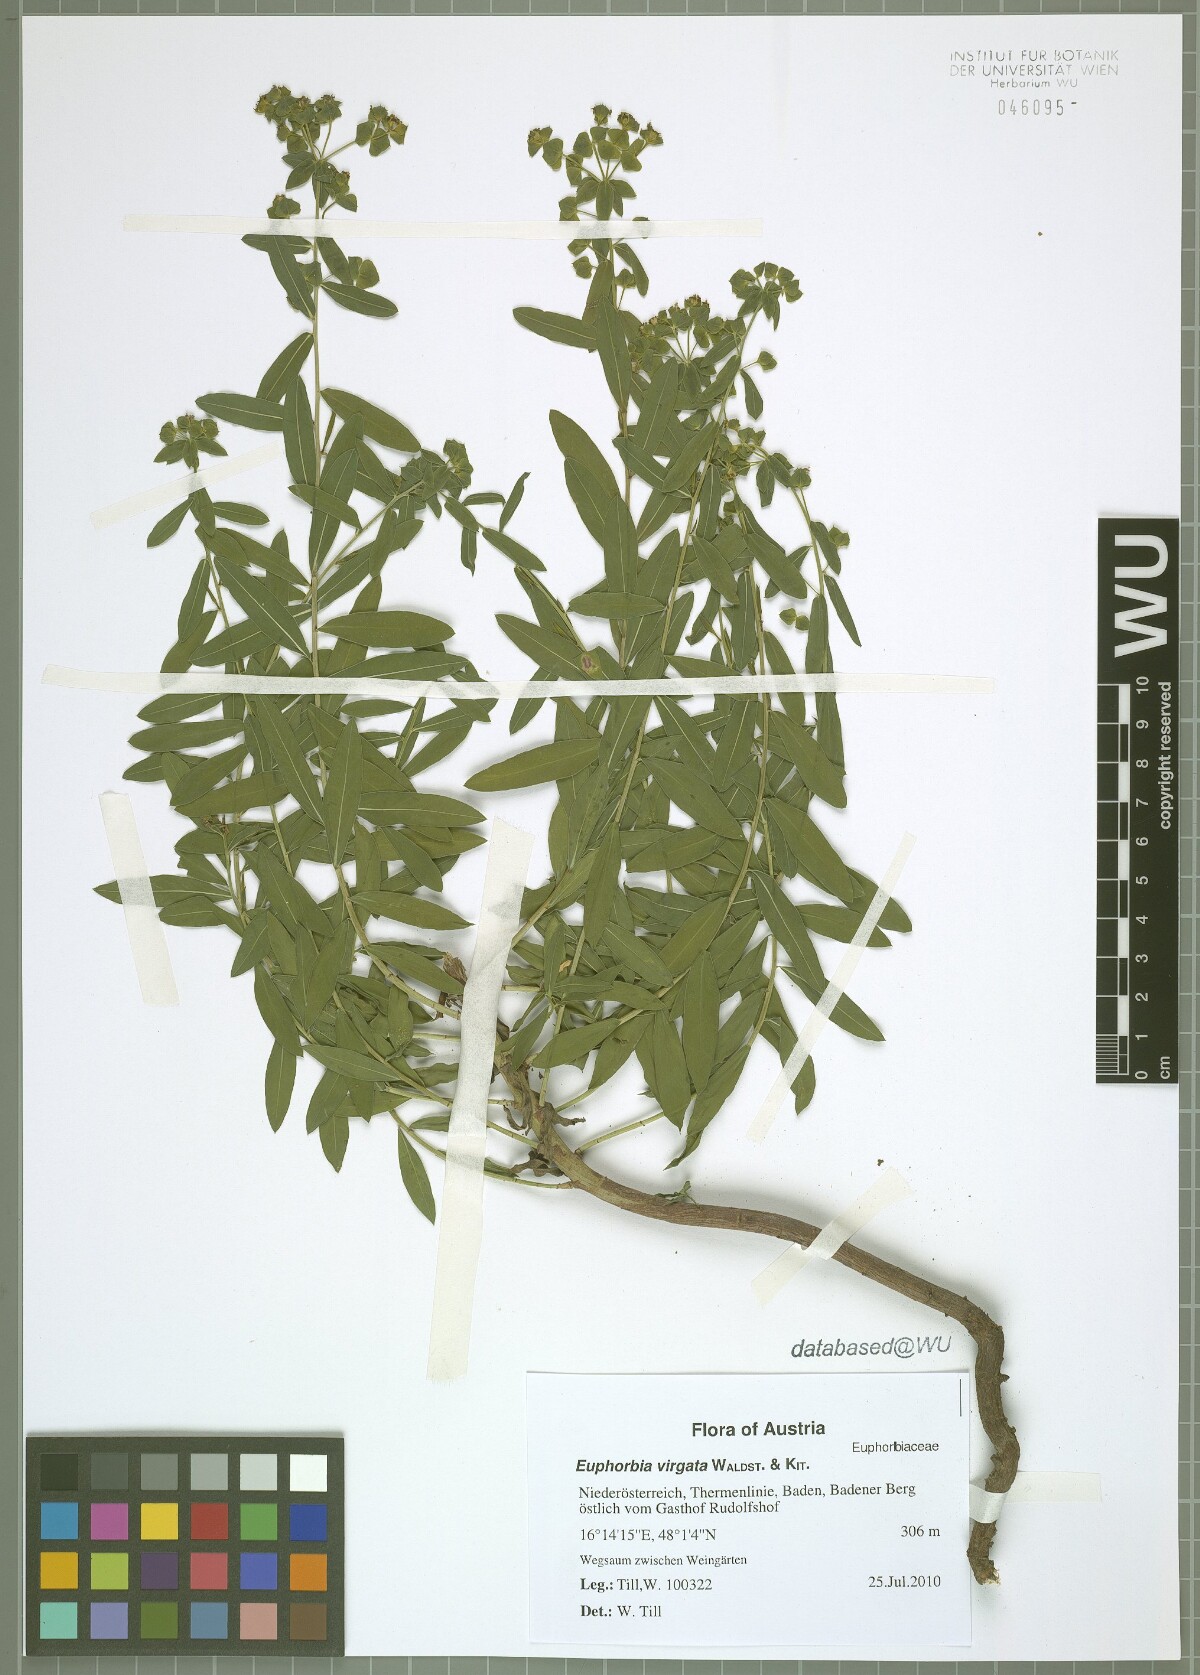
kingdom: Plantae
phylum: Tracheophyta
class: Magnoliopsida
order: Malpighiales
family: Euphorbiaceae
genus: Euphorbia
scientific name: Euphorbia virgata
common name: Leafy spurge
